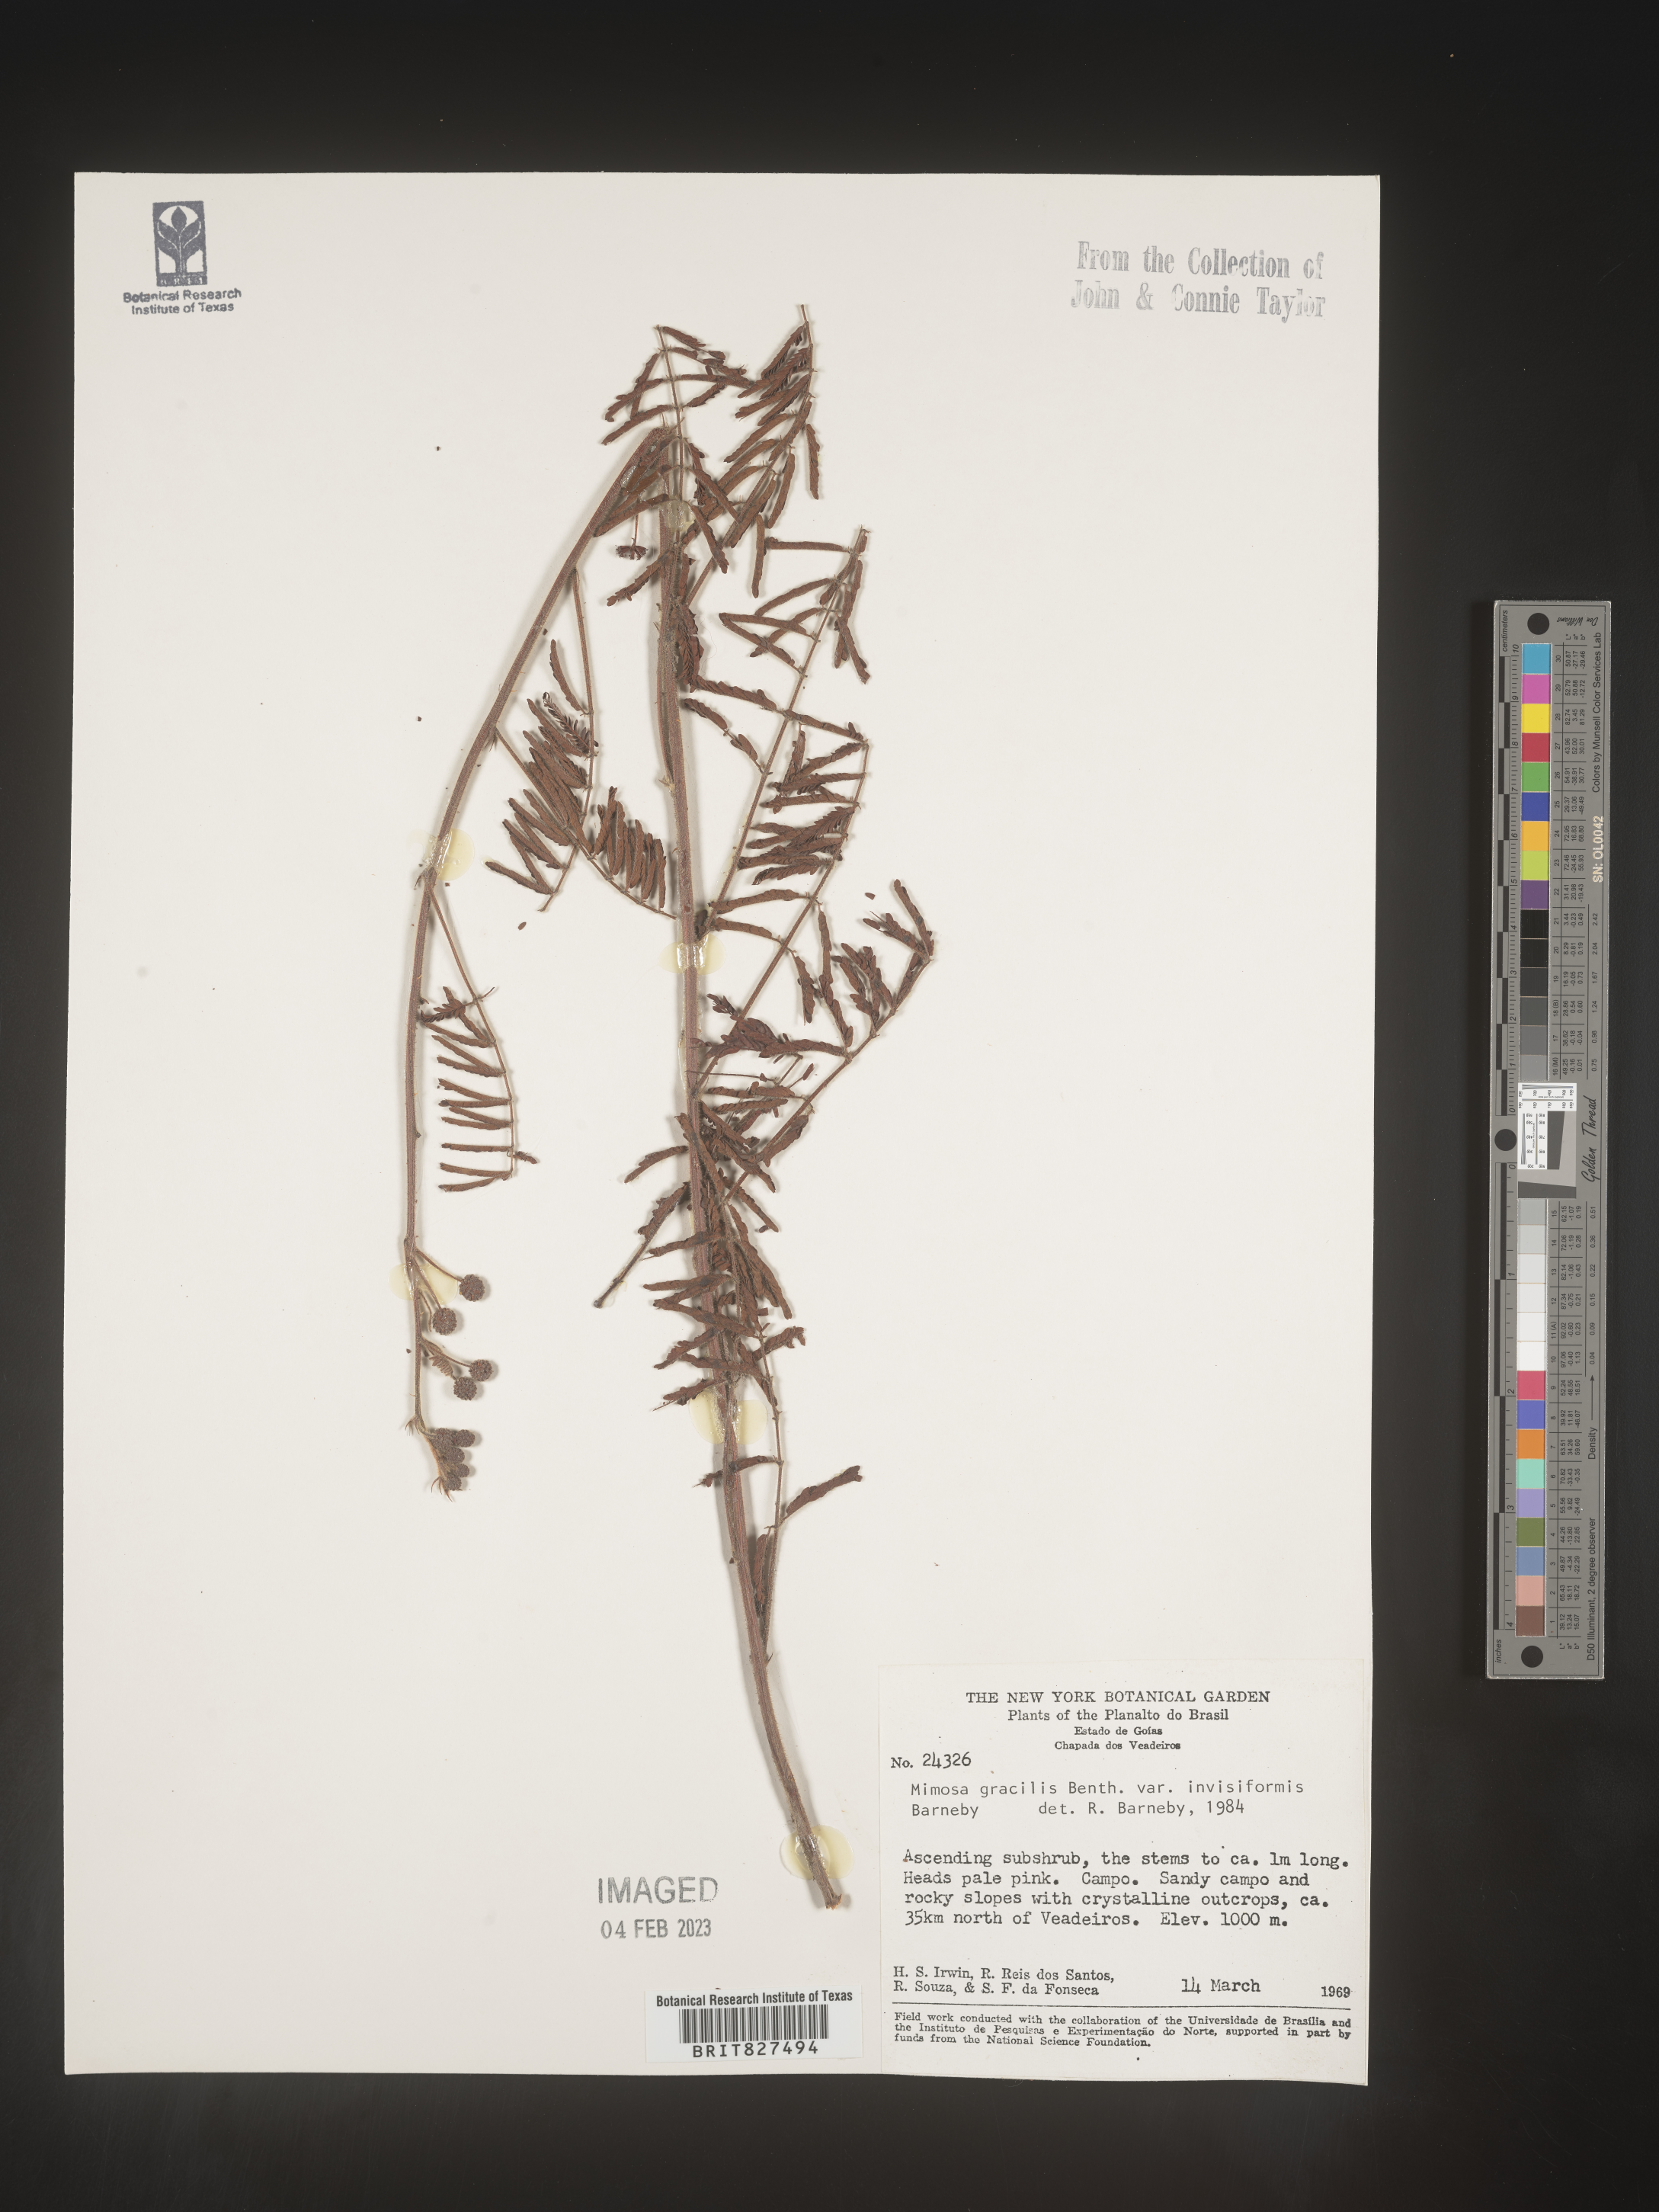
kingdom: Plantae
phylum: Tracheophyta
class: Magnoliopsida
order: Fabales
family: Fabaceae
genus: Mimosa
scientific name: Mimosa
